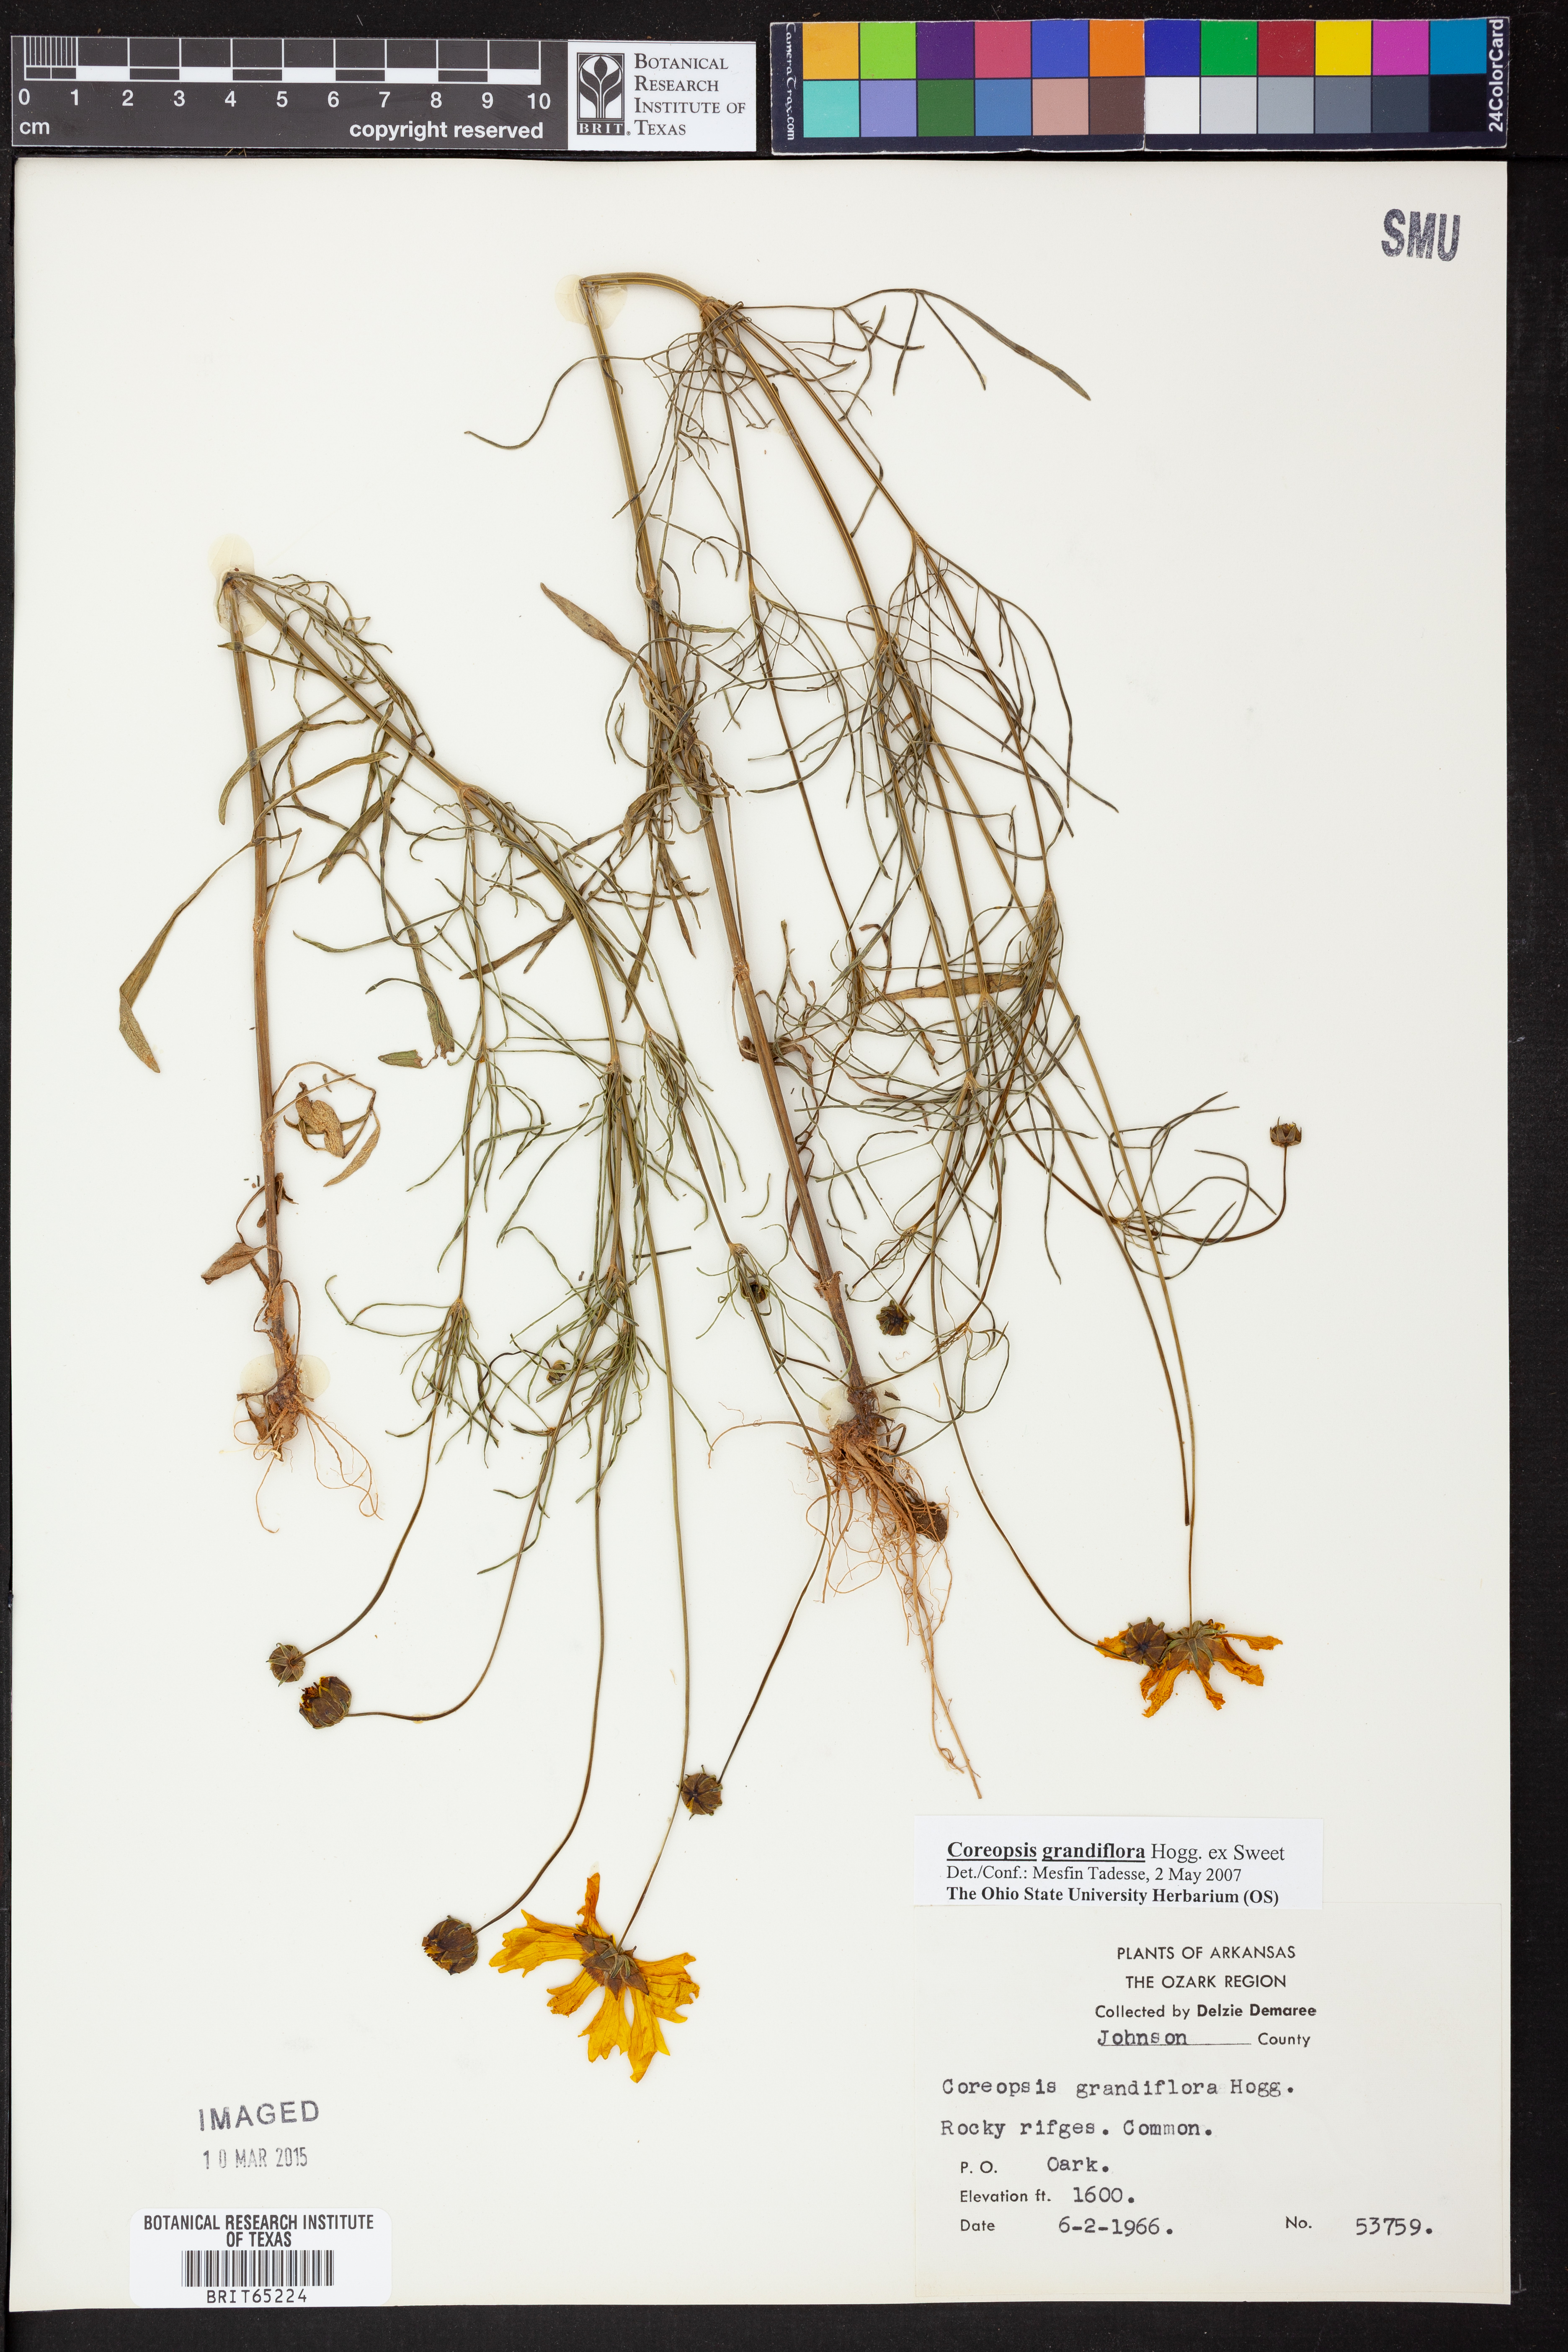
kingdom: Plantae
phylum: Tracheophyta
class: Magnoliopsida
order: Asterales
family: Asteraceae
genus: Coreopsis
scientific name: Coreopsis grandiflora
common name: Large-flowered tickseed
